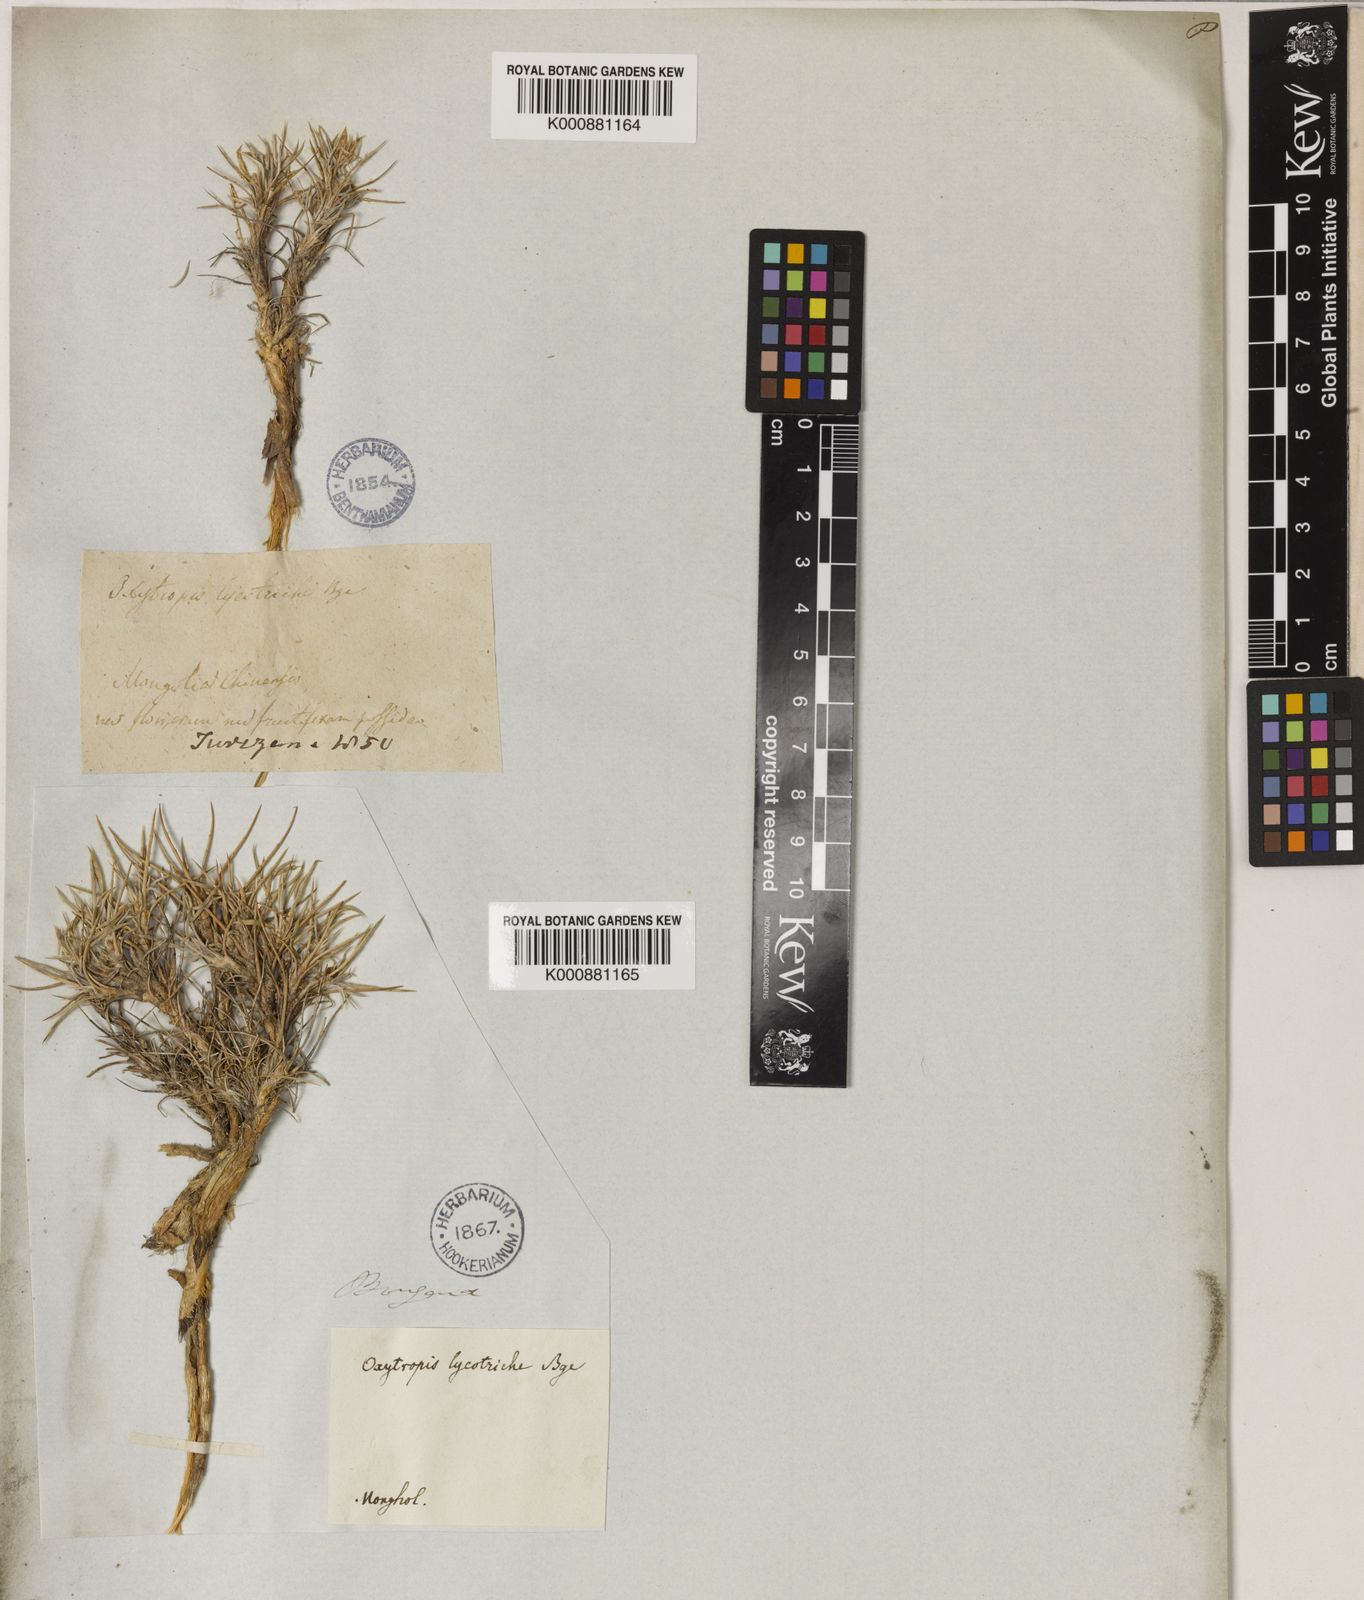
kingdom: Plantae
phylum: Tracheophyta
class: Magnoliopsida
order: Fabales
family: Fabaceae
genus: Oxytropis
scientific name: Oxytropis aciphylla
